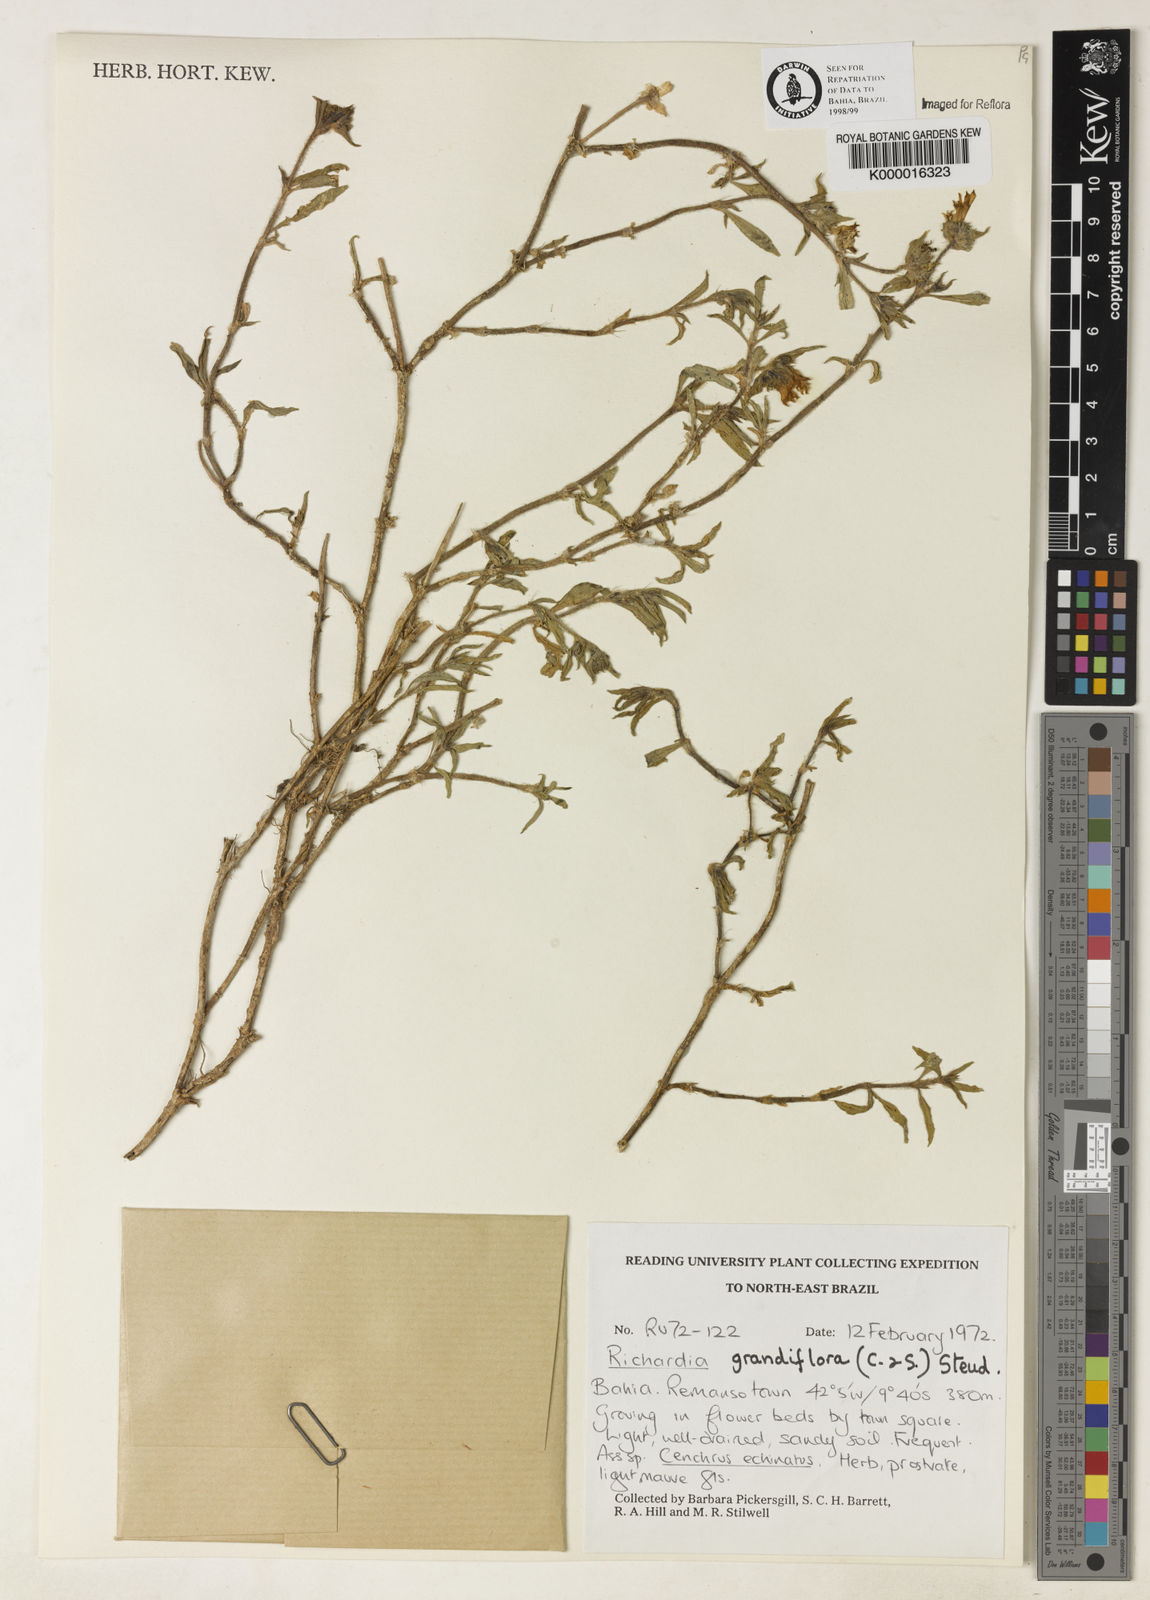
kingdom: Plantae
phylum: Tracheophyta
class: Magnoliopsida
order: Gentianales
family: Rubiaceae
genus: Richardia
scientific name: Richardia grandiflora
